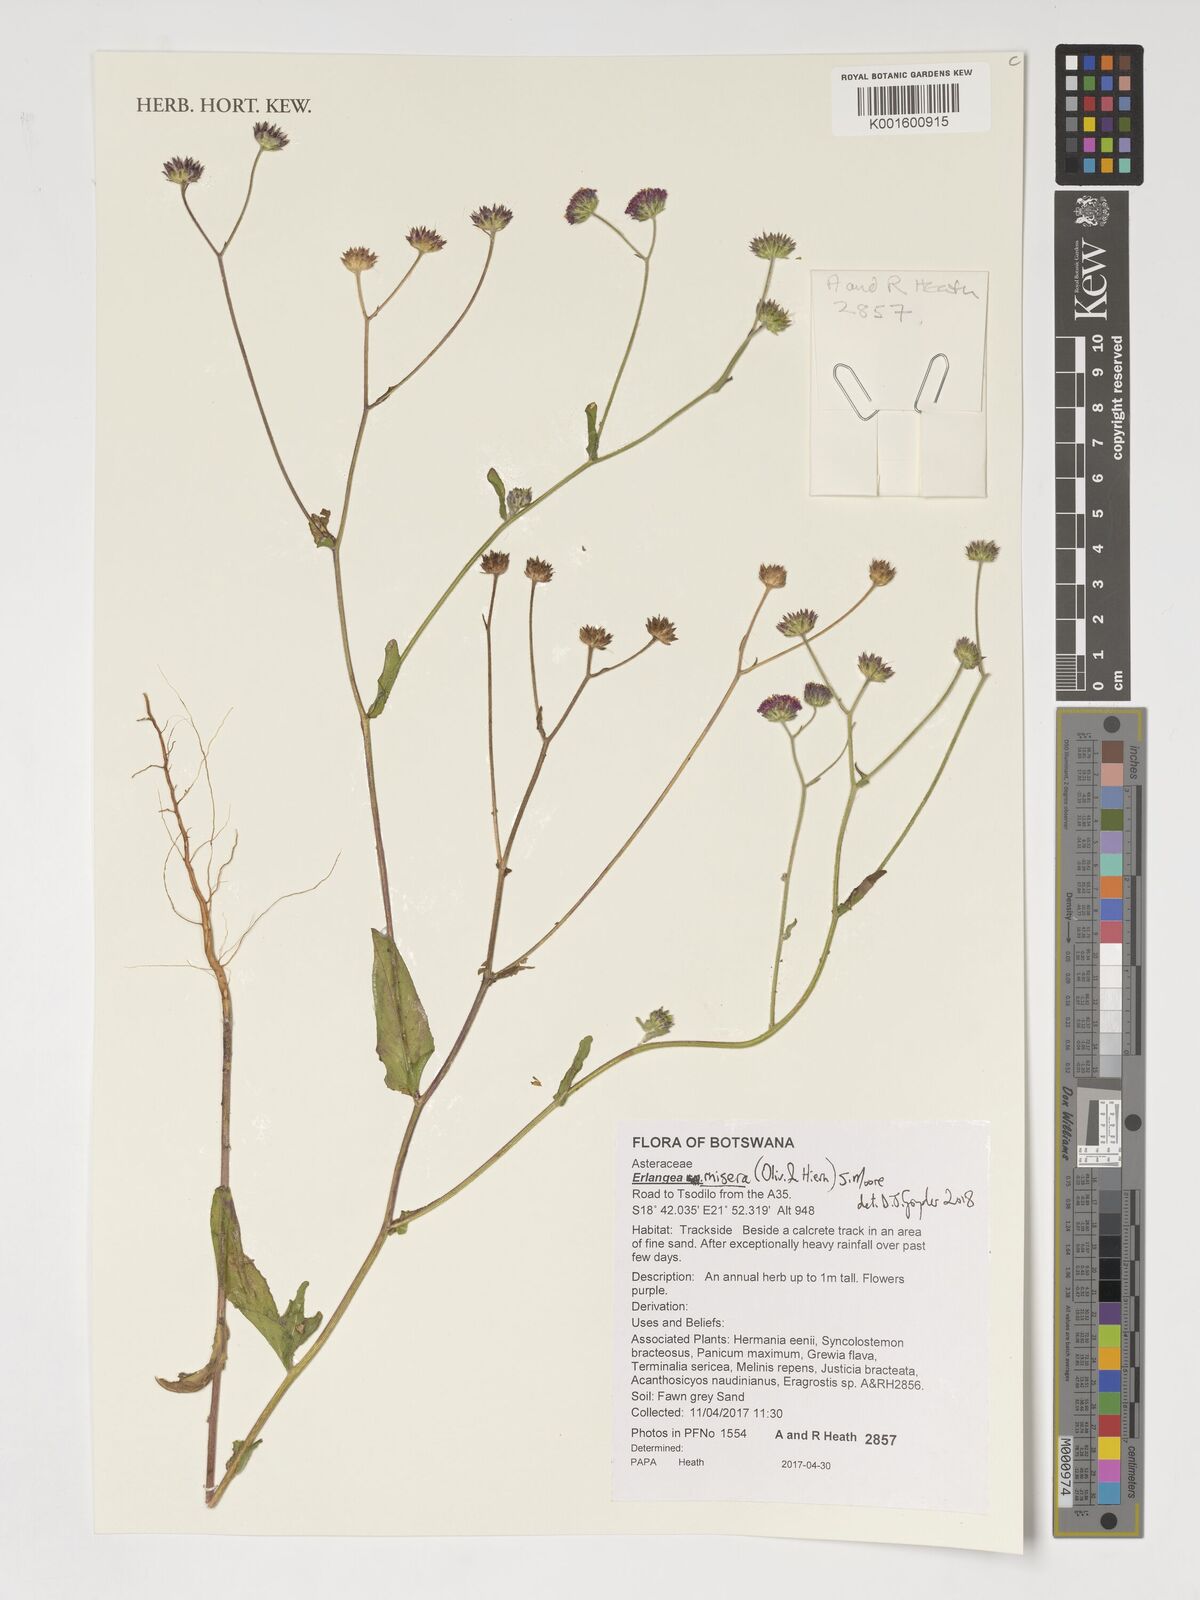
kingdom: Plantae
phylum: Tracheophyta
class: Magnoliopsida
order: Asterales
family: Asteraceae
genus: Erlangea
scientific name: Erlangea misera
